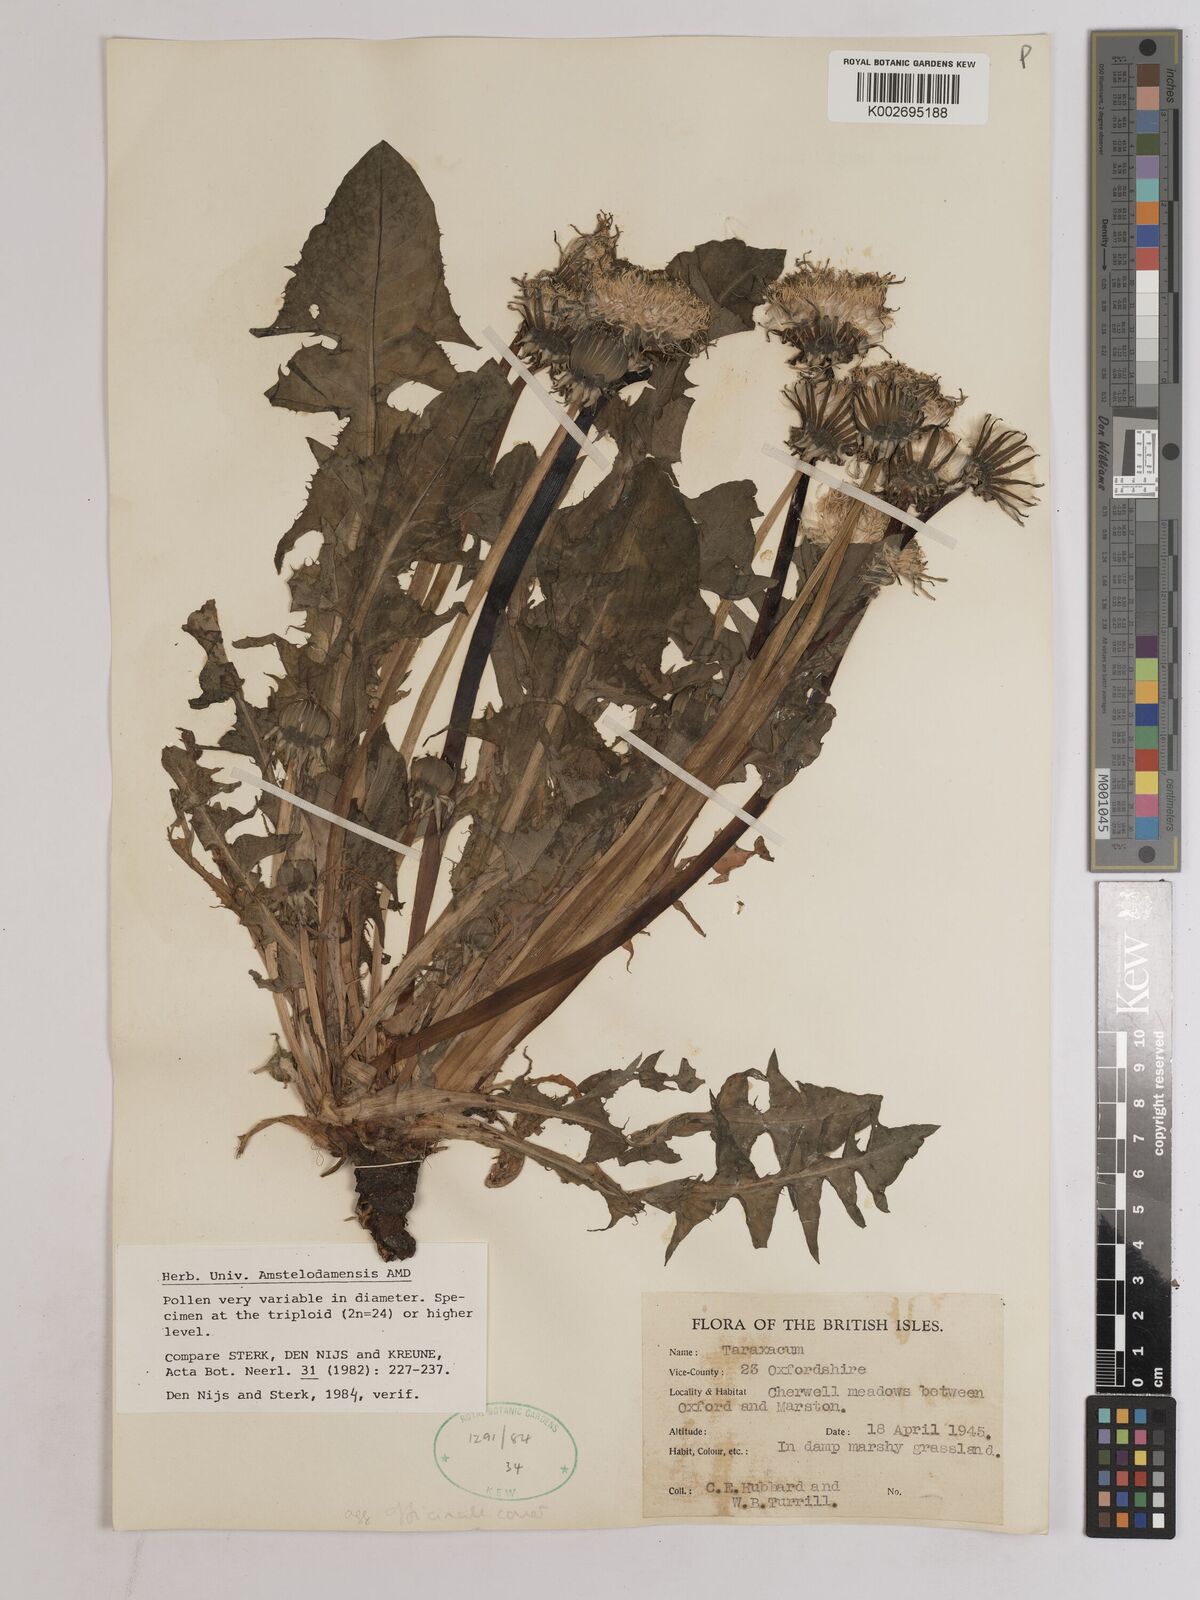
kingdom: Plantae
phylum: Tracheophyta
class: Magnoliopsida
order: Asterales
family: Asteraceae
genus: Taraxacum
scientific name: Taraxacum officinale
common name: Common dandelion
